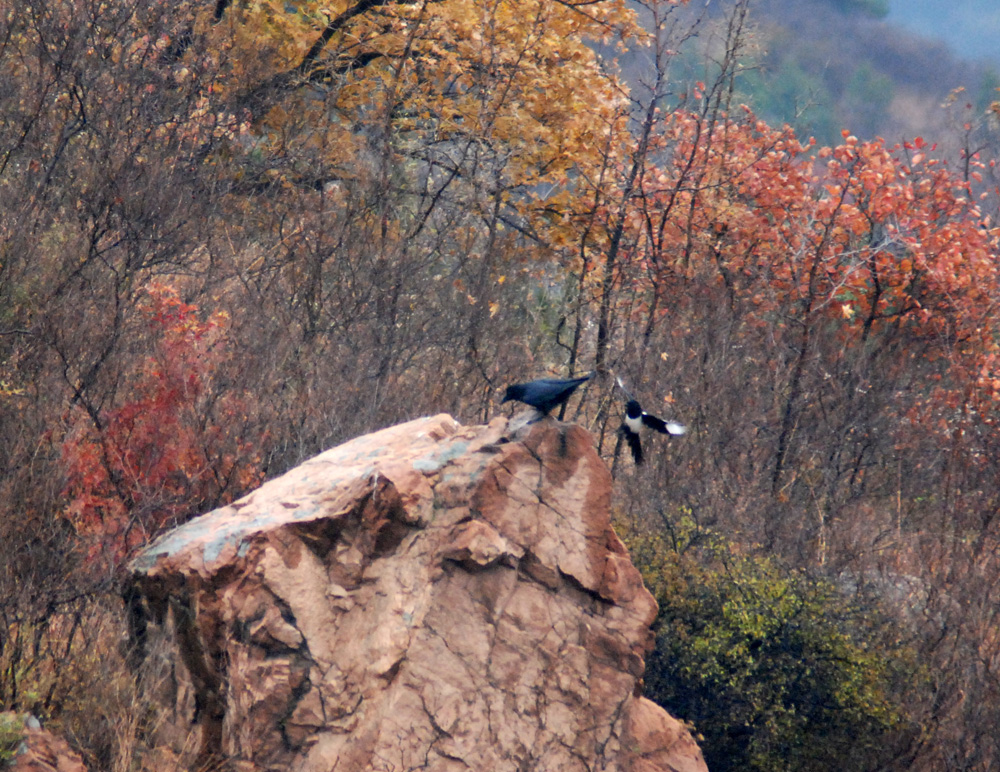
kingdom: Animalia
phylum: Chordata
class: Aves
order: Passeriformes
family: Corvidae
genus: Pica
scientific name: Pica pica
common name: Eurasian magpie
